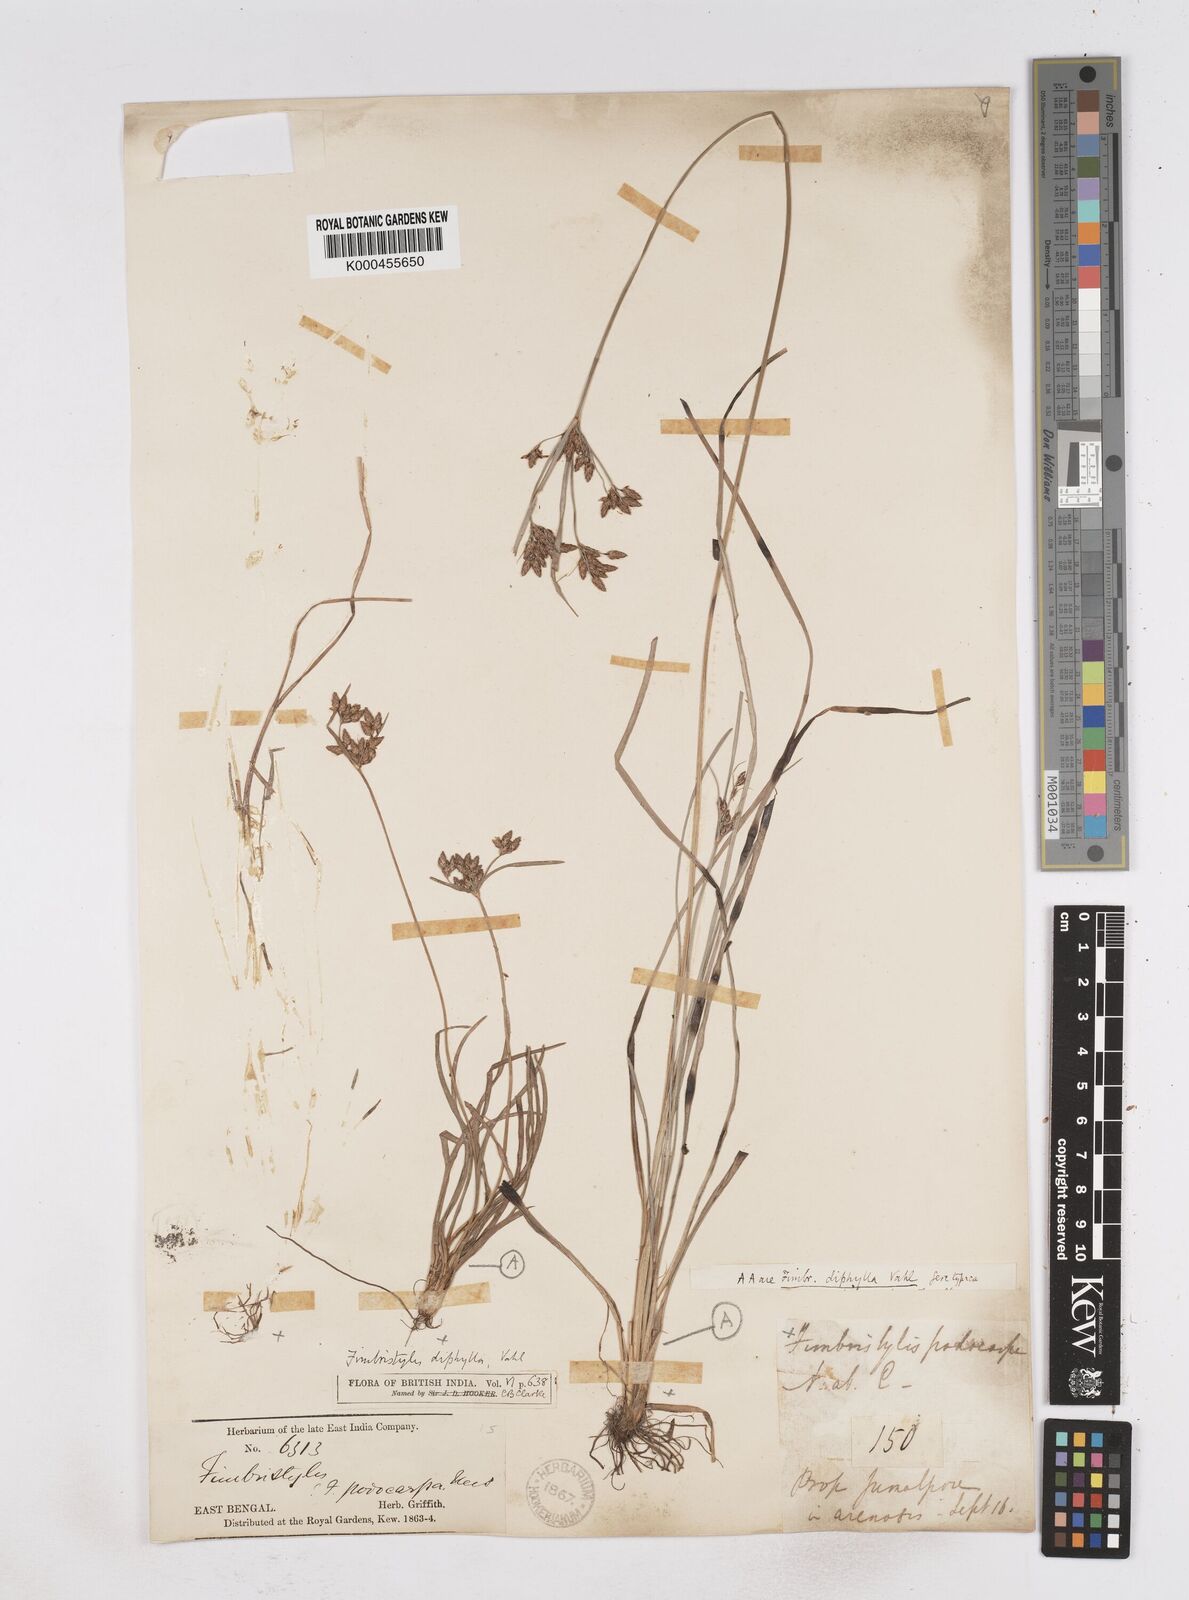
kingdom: Plantae
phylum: Tracheophyta
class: Liliopsida
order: Poales
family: Cyperaceae
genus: Fimbristylis
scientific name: Fimbristylis dichotoma
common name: Forked fimbry
